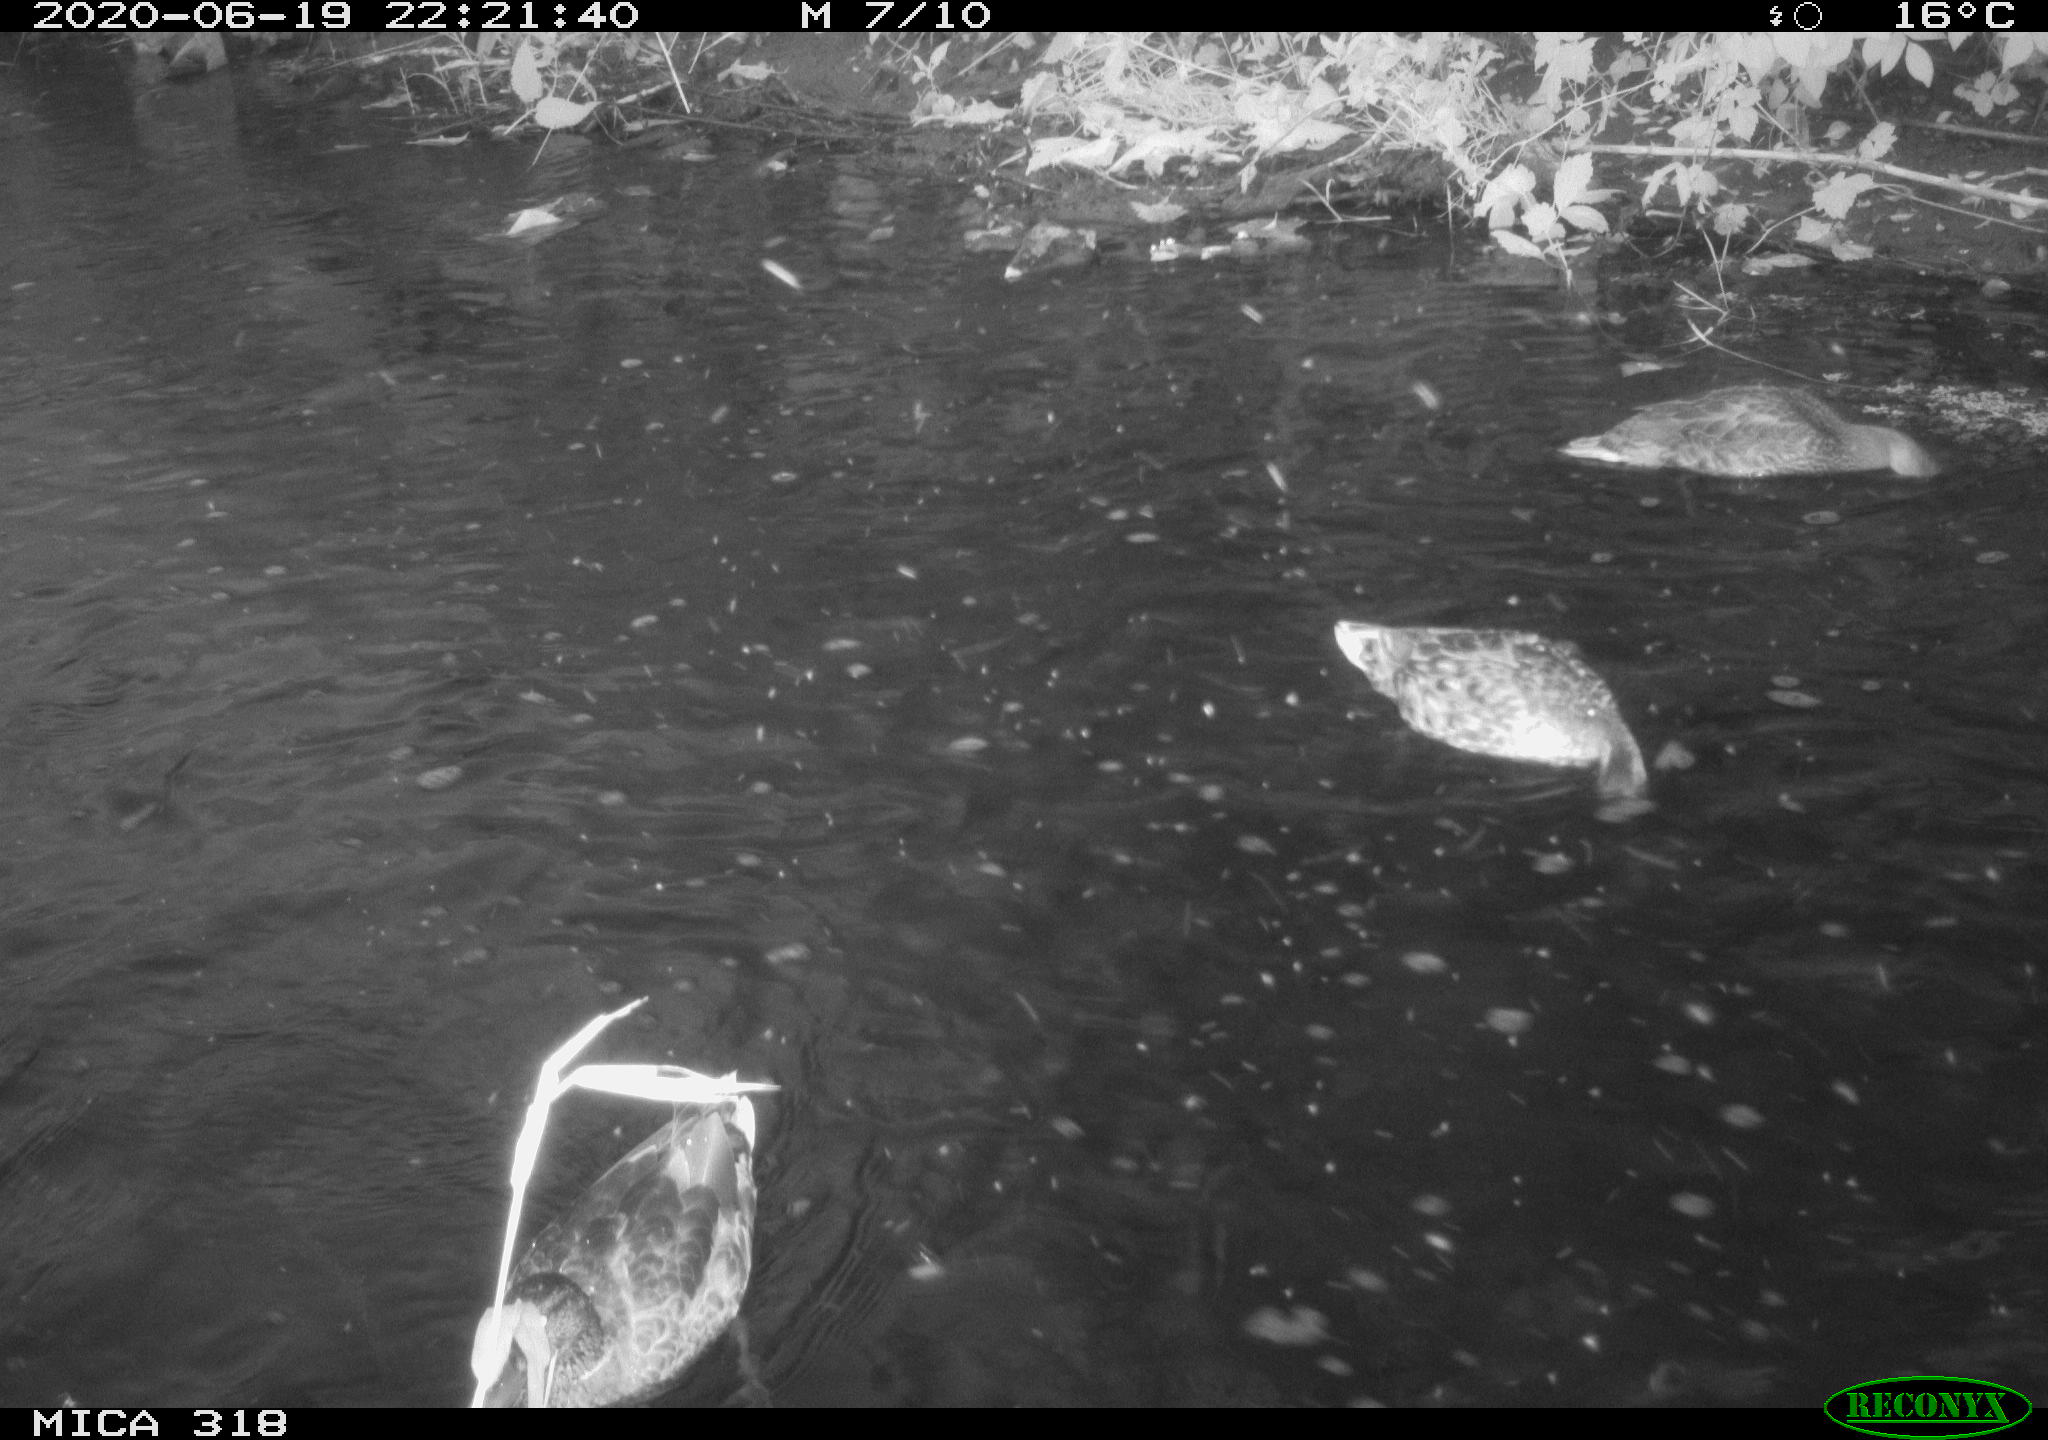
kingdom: Animalia
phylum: Chordata
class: Aves
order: Anseriformes
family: Anatidae
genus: Anas
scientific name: Anas platyrhynchos
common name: Mallard
